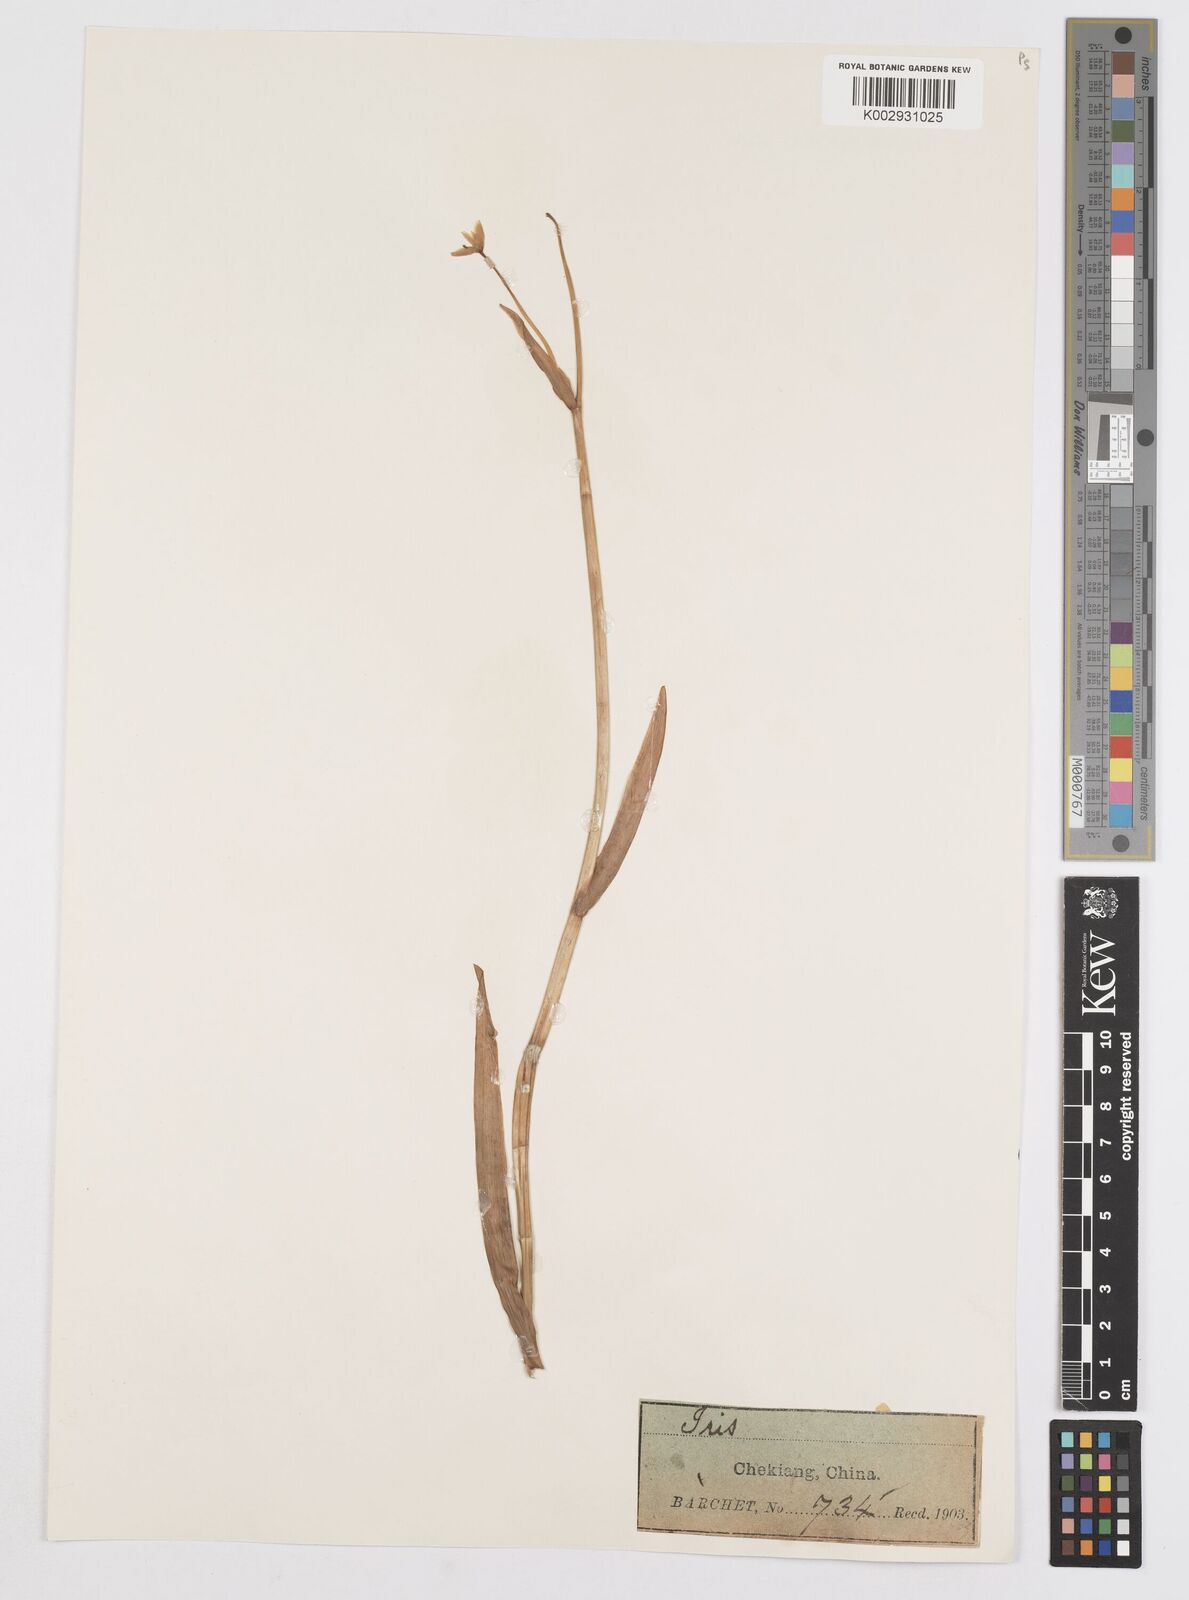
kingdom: Plantae
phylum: Tracheophyta
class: Liliopsida
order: Asparagales
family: Iridaceae
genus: Iris
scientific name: Iris
